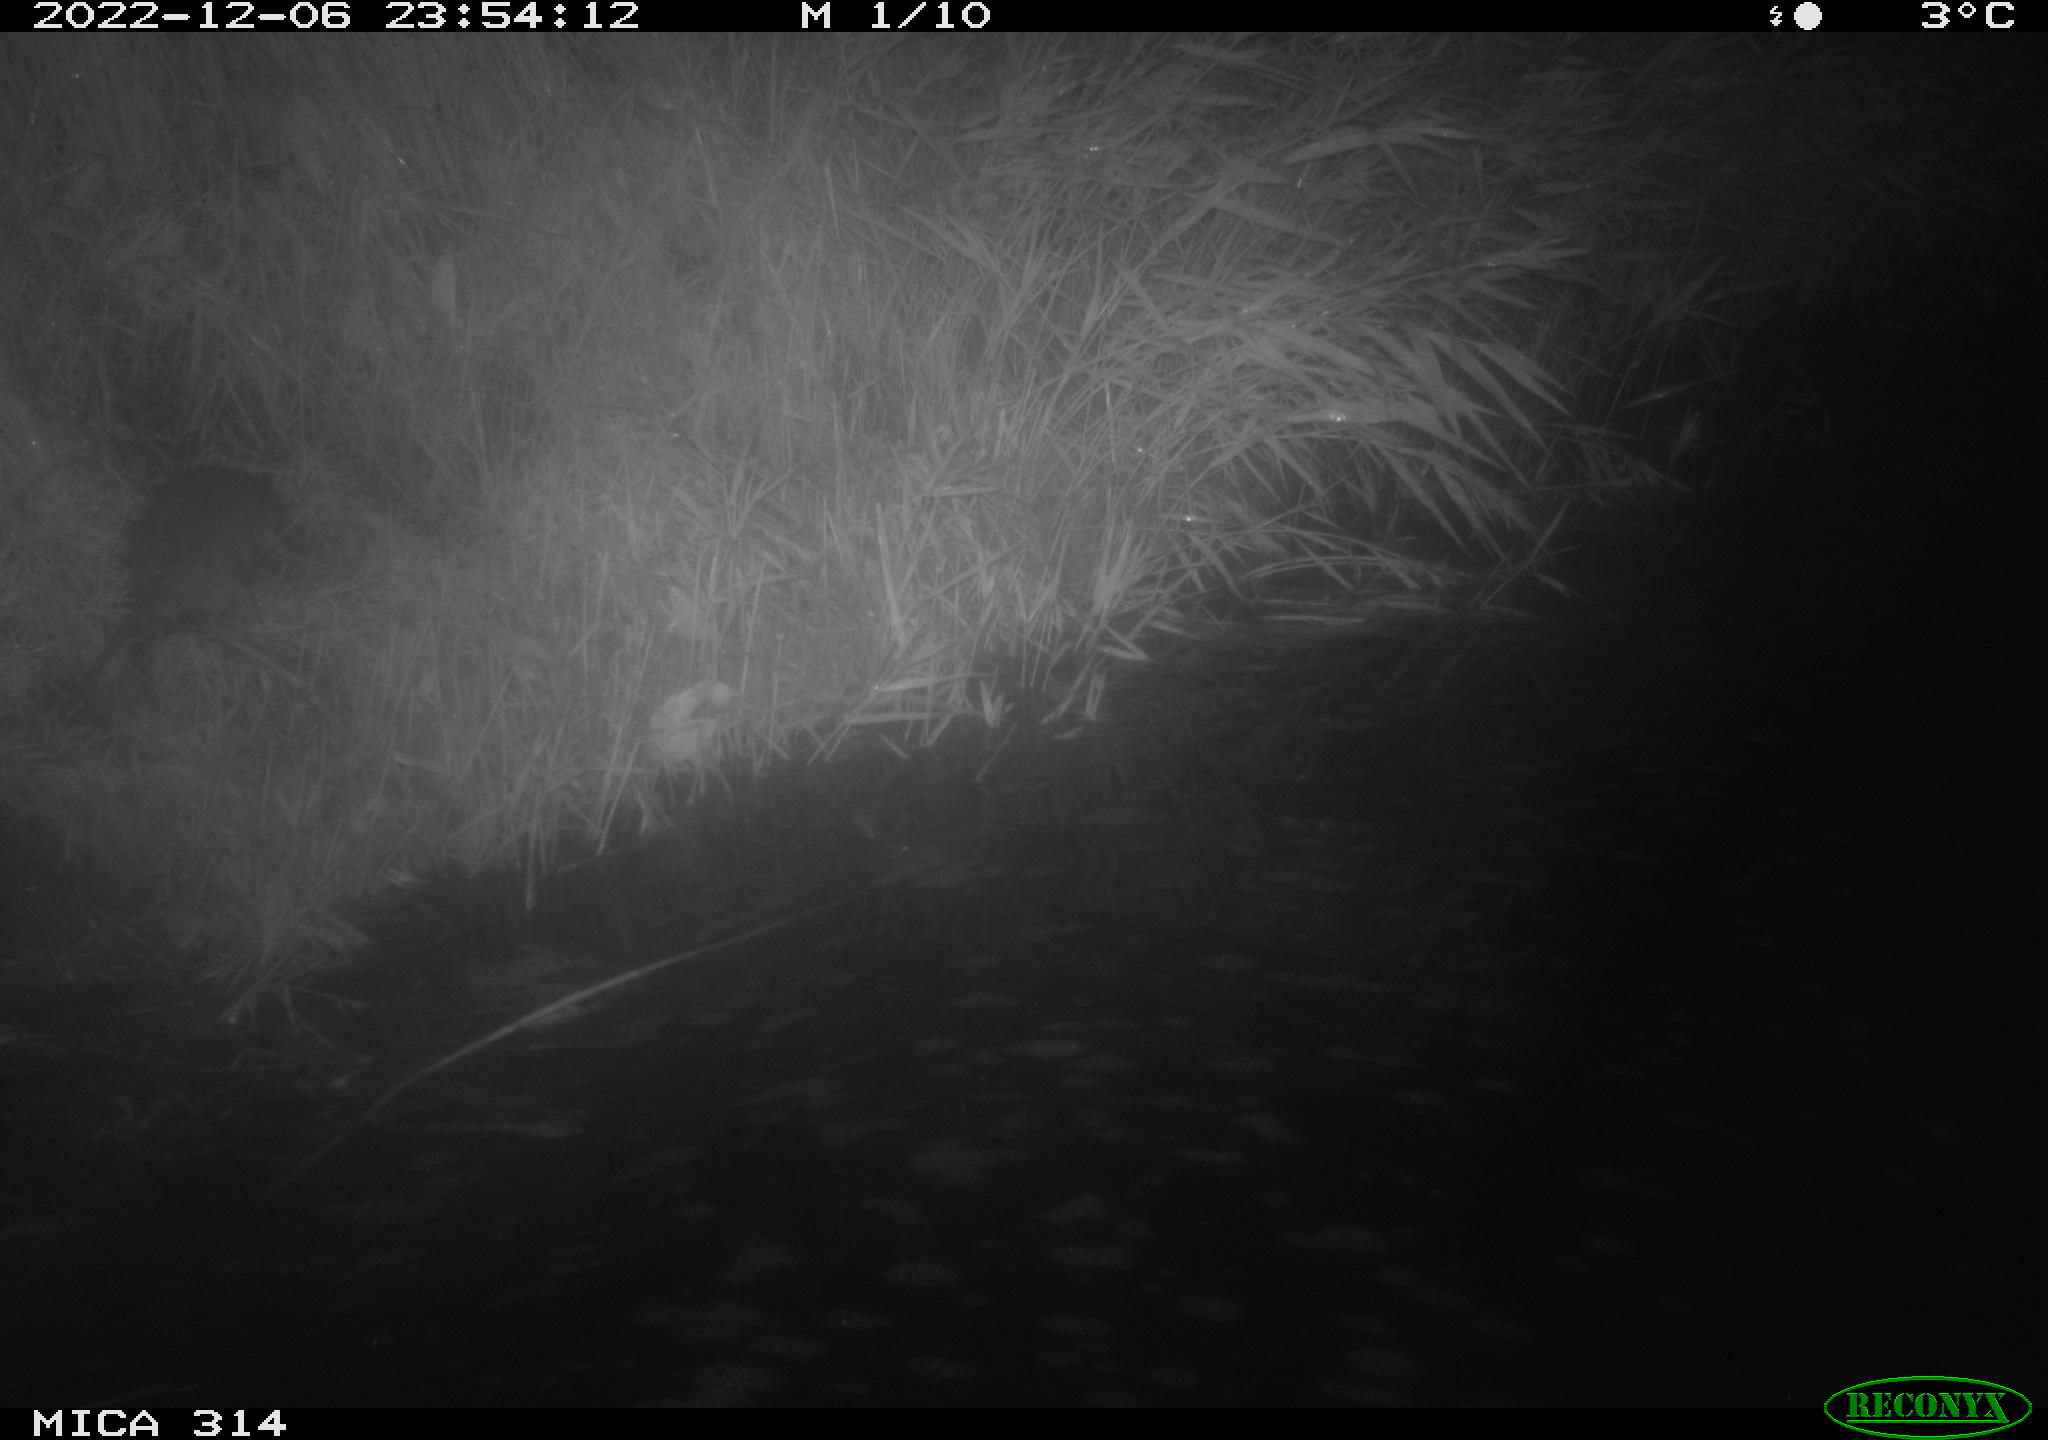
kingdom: Animalia
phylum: Chordata
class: Mammalia
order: Rodentia
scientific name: Rodentia
